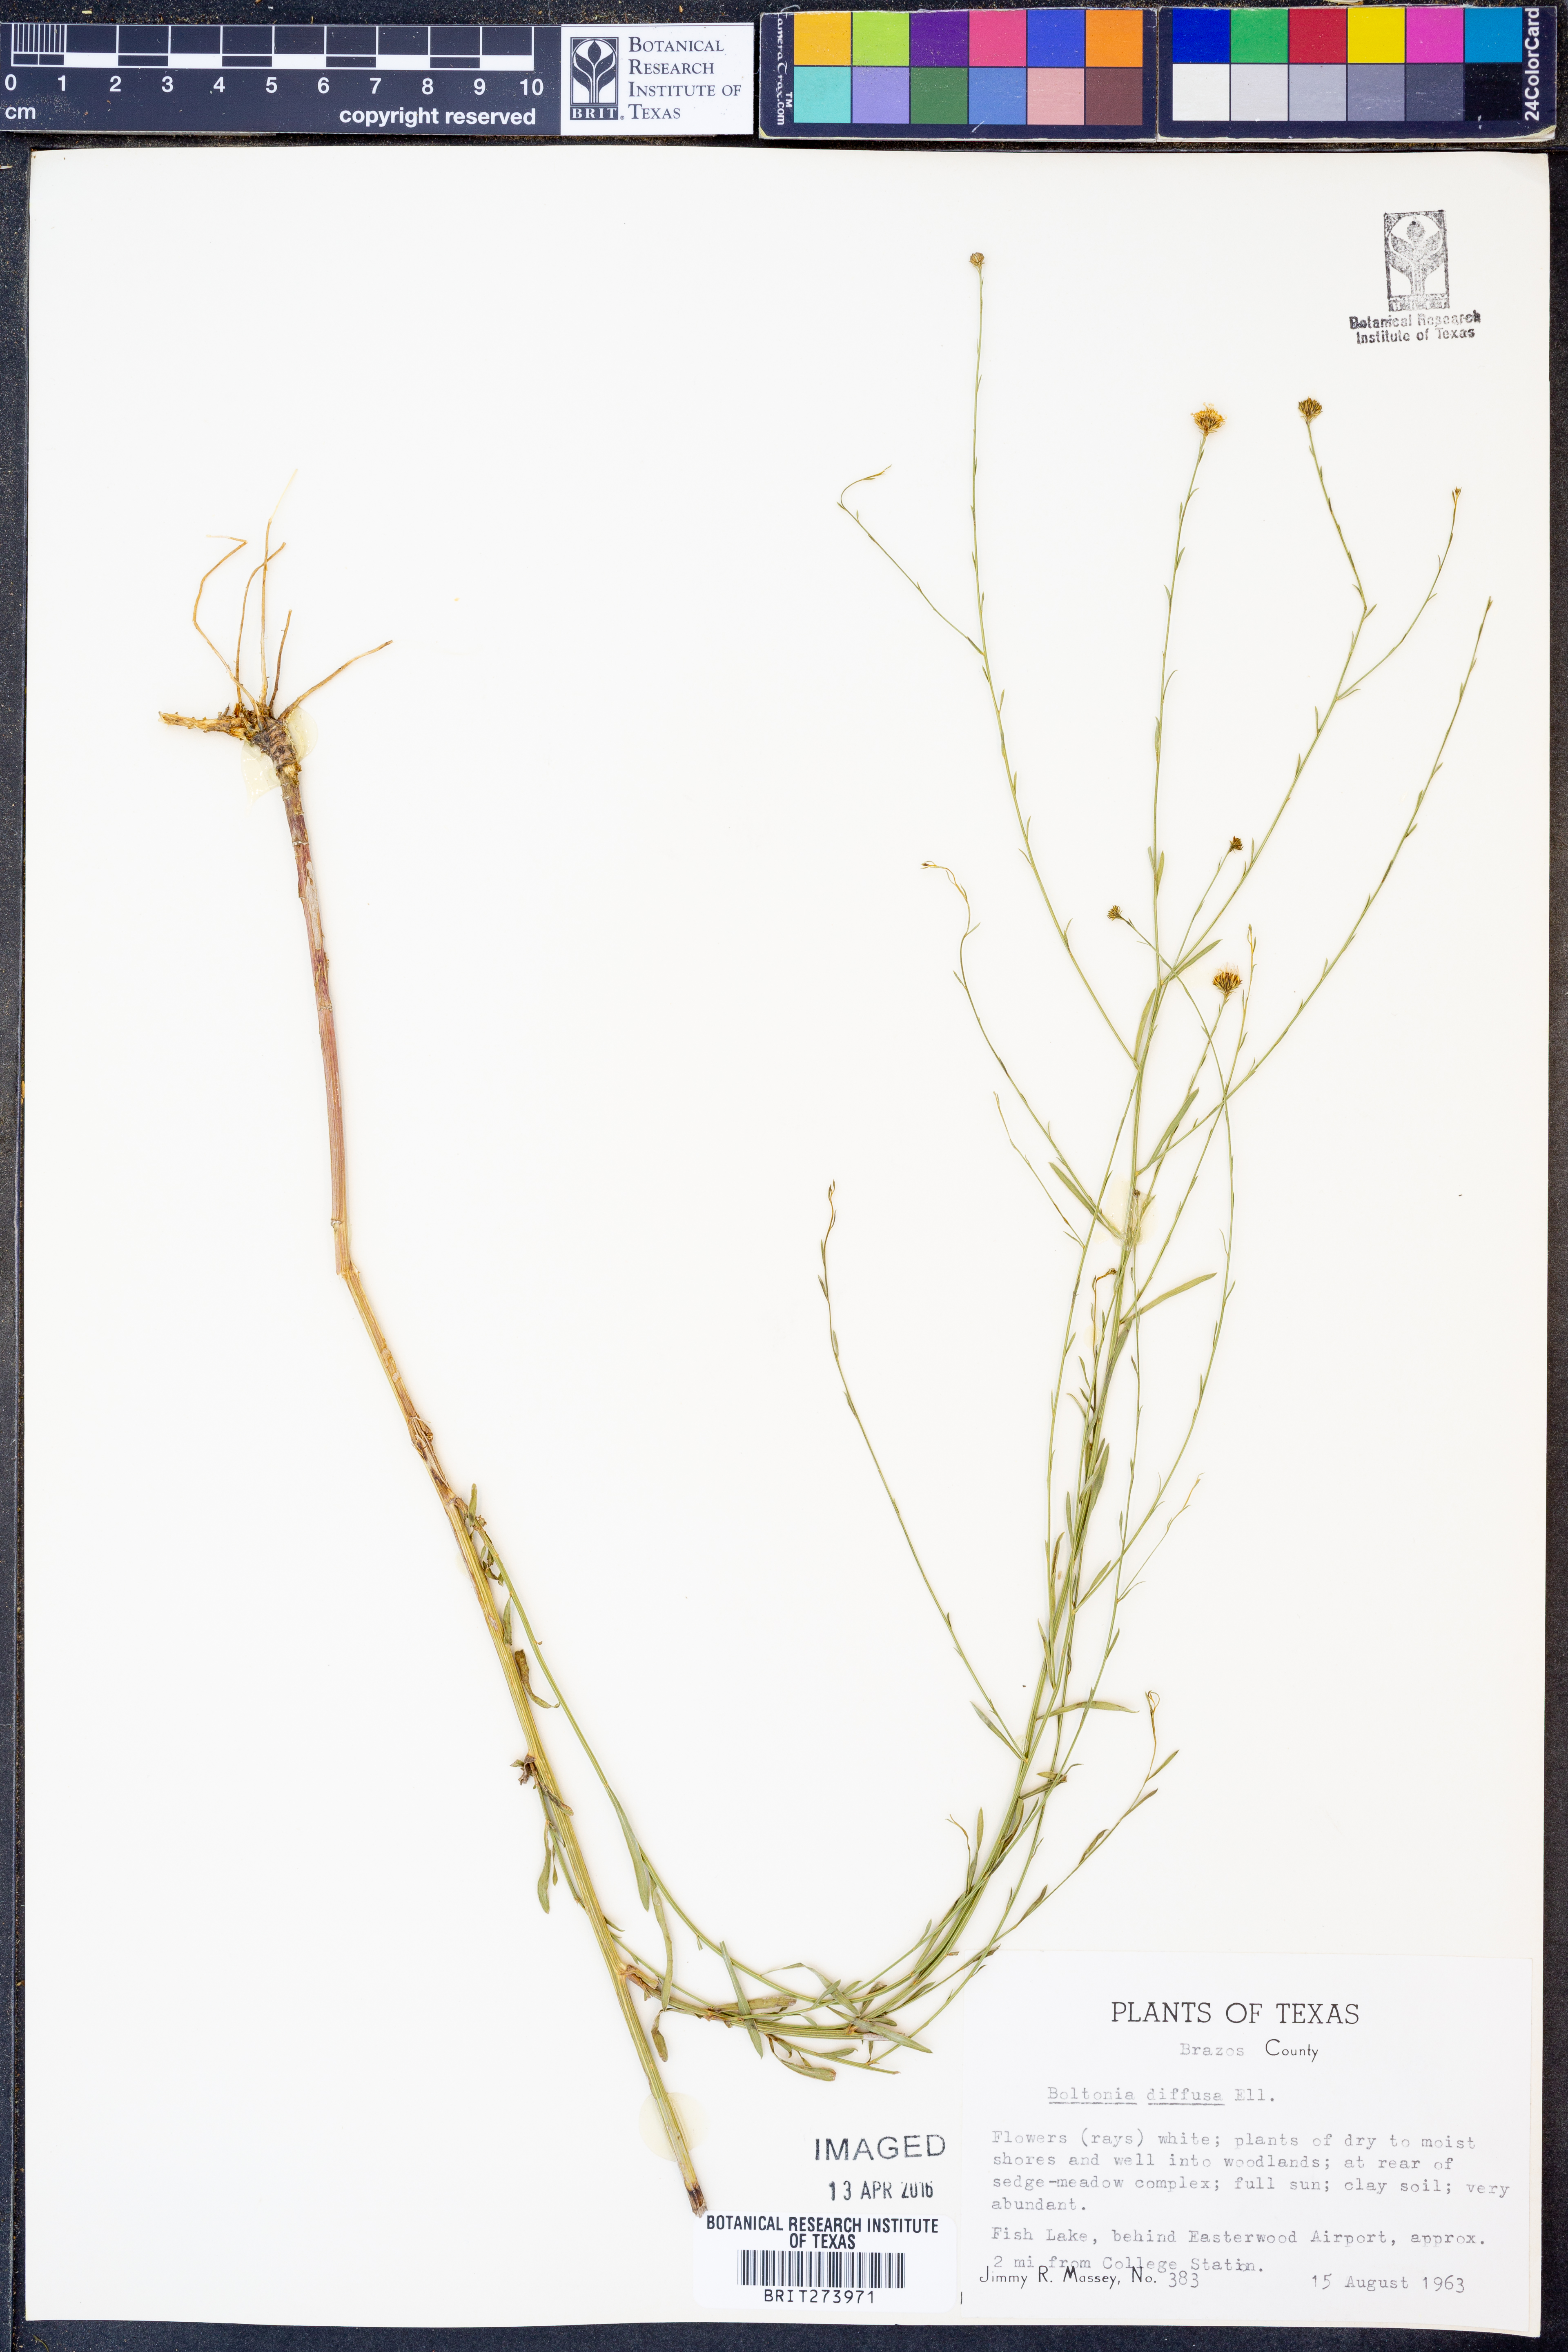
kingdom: Plantae
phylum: Tracheophyta
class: Magnoliopsida
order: Asterales
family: Asteraceae
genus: Boltonia
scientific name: Boltonia diffusa
